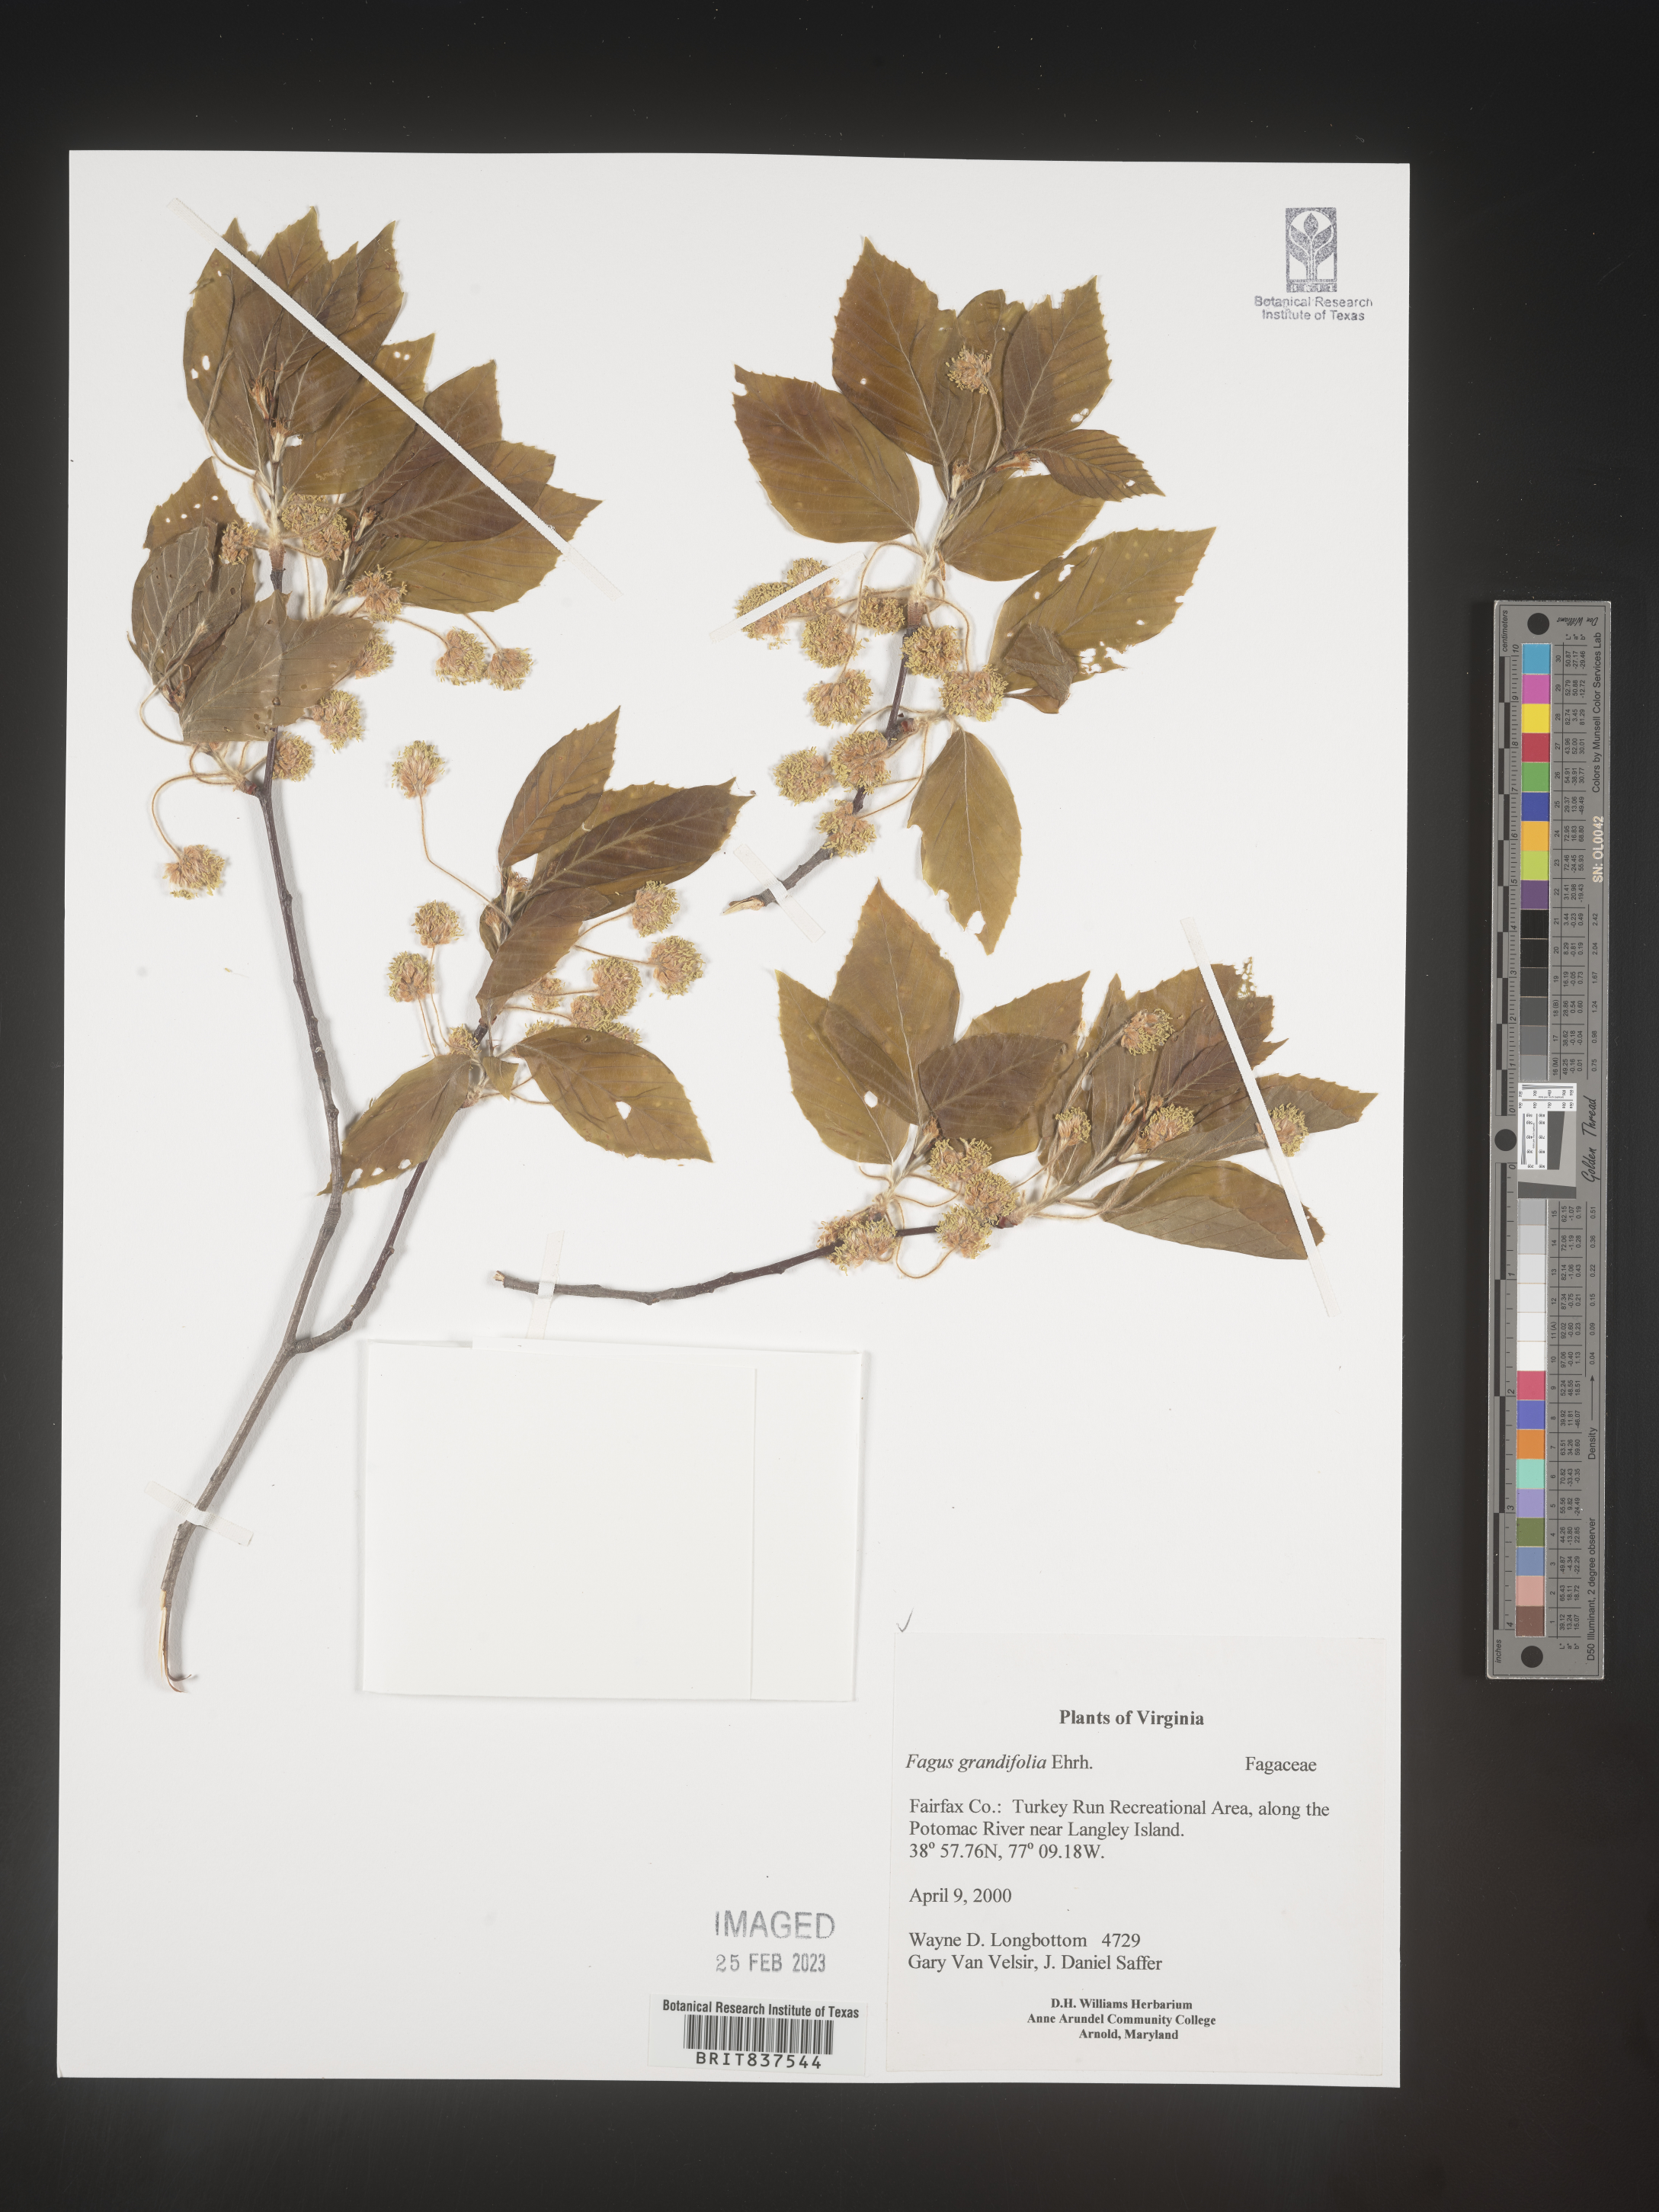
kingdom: Plantae
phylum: Tracheophyta
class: Magnoliopsida
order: Fagales
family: Fagaceae
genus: Fagus
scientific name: Fagus grandifolia
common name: American beech
